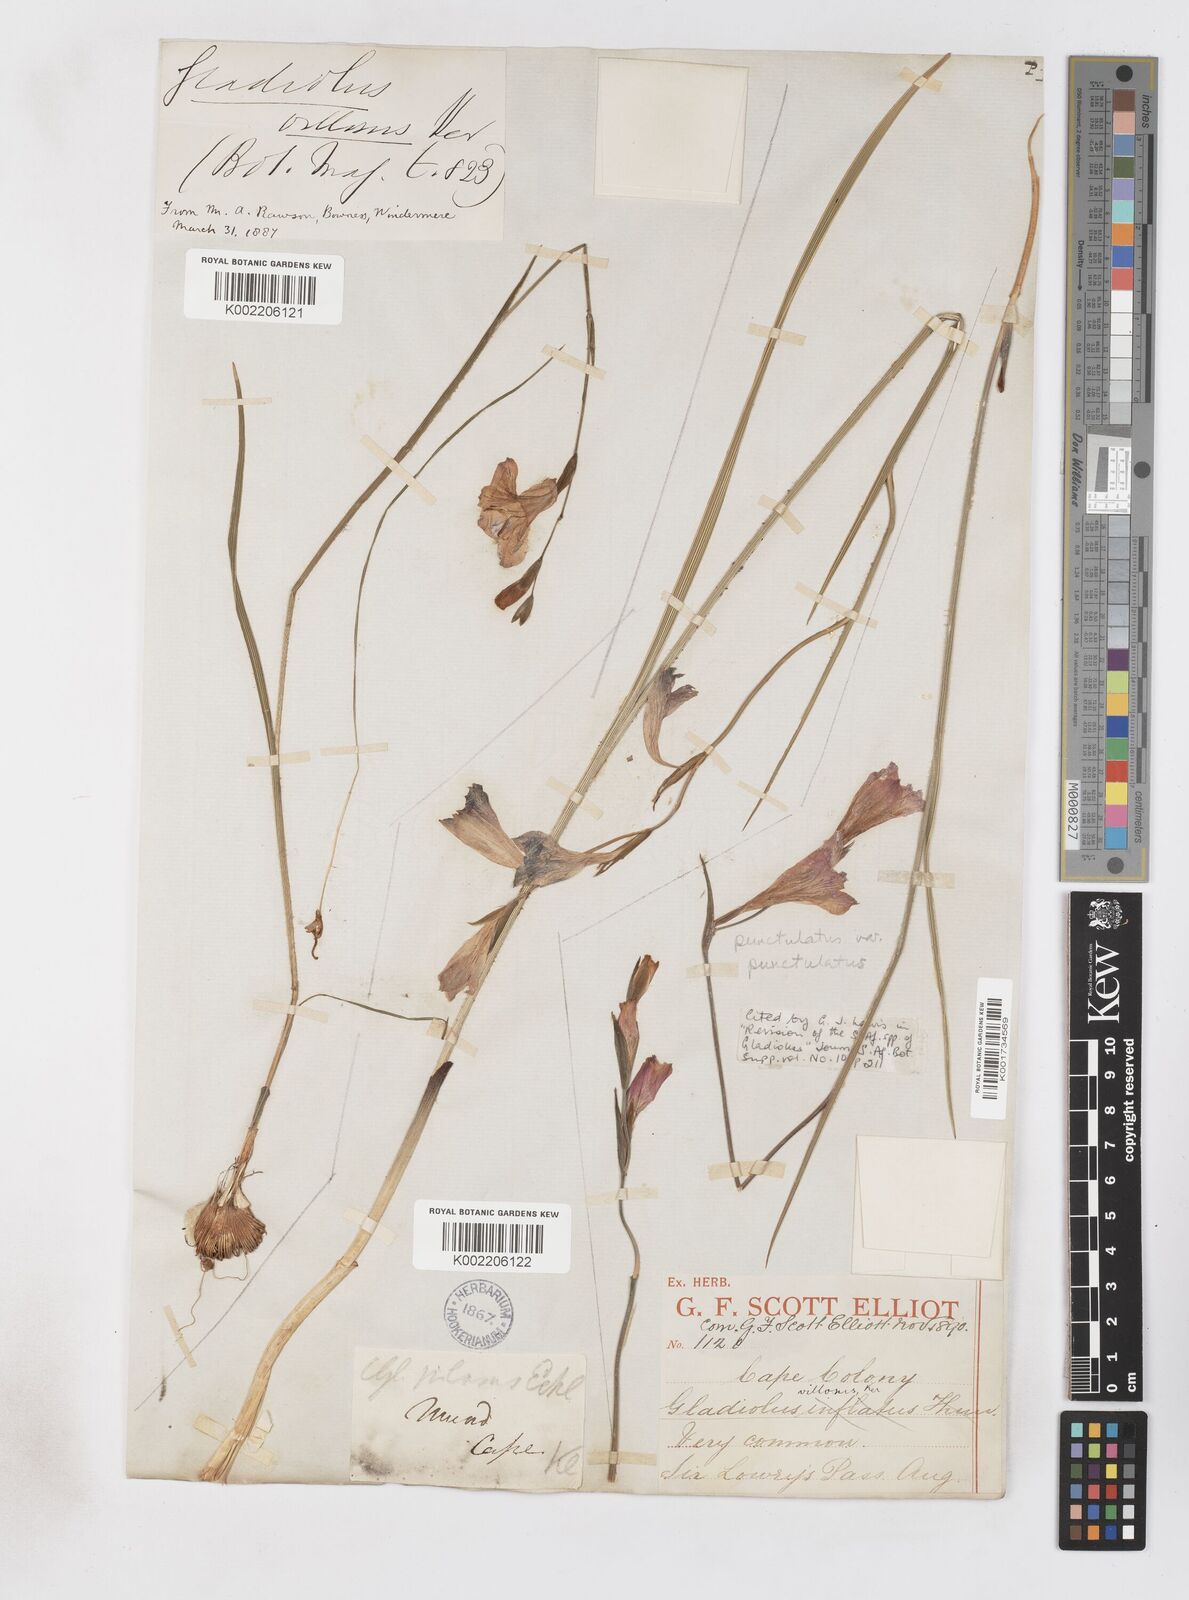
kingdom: Plantae
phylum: Tracheophyta
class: Liliopsida
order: Asparagales
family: Iridaceae
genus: Gladiolus
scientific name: Gladiolus hirsutus
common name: Small pink afrikaner
